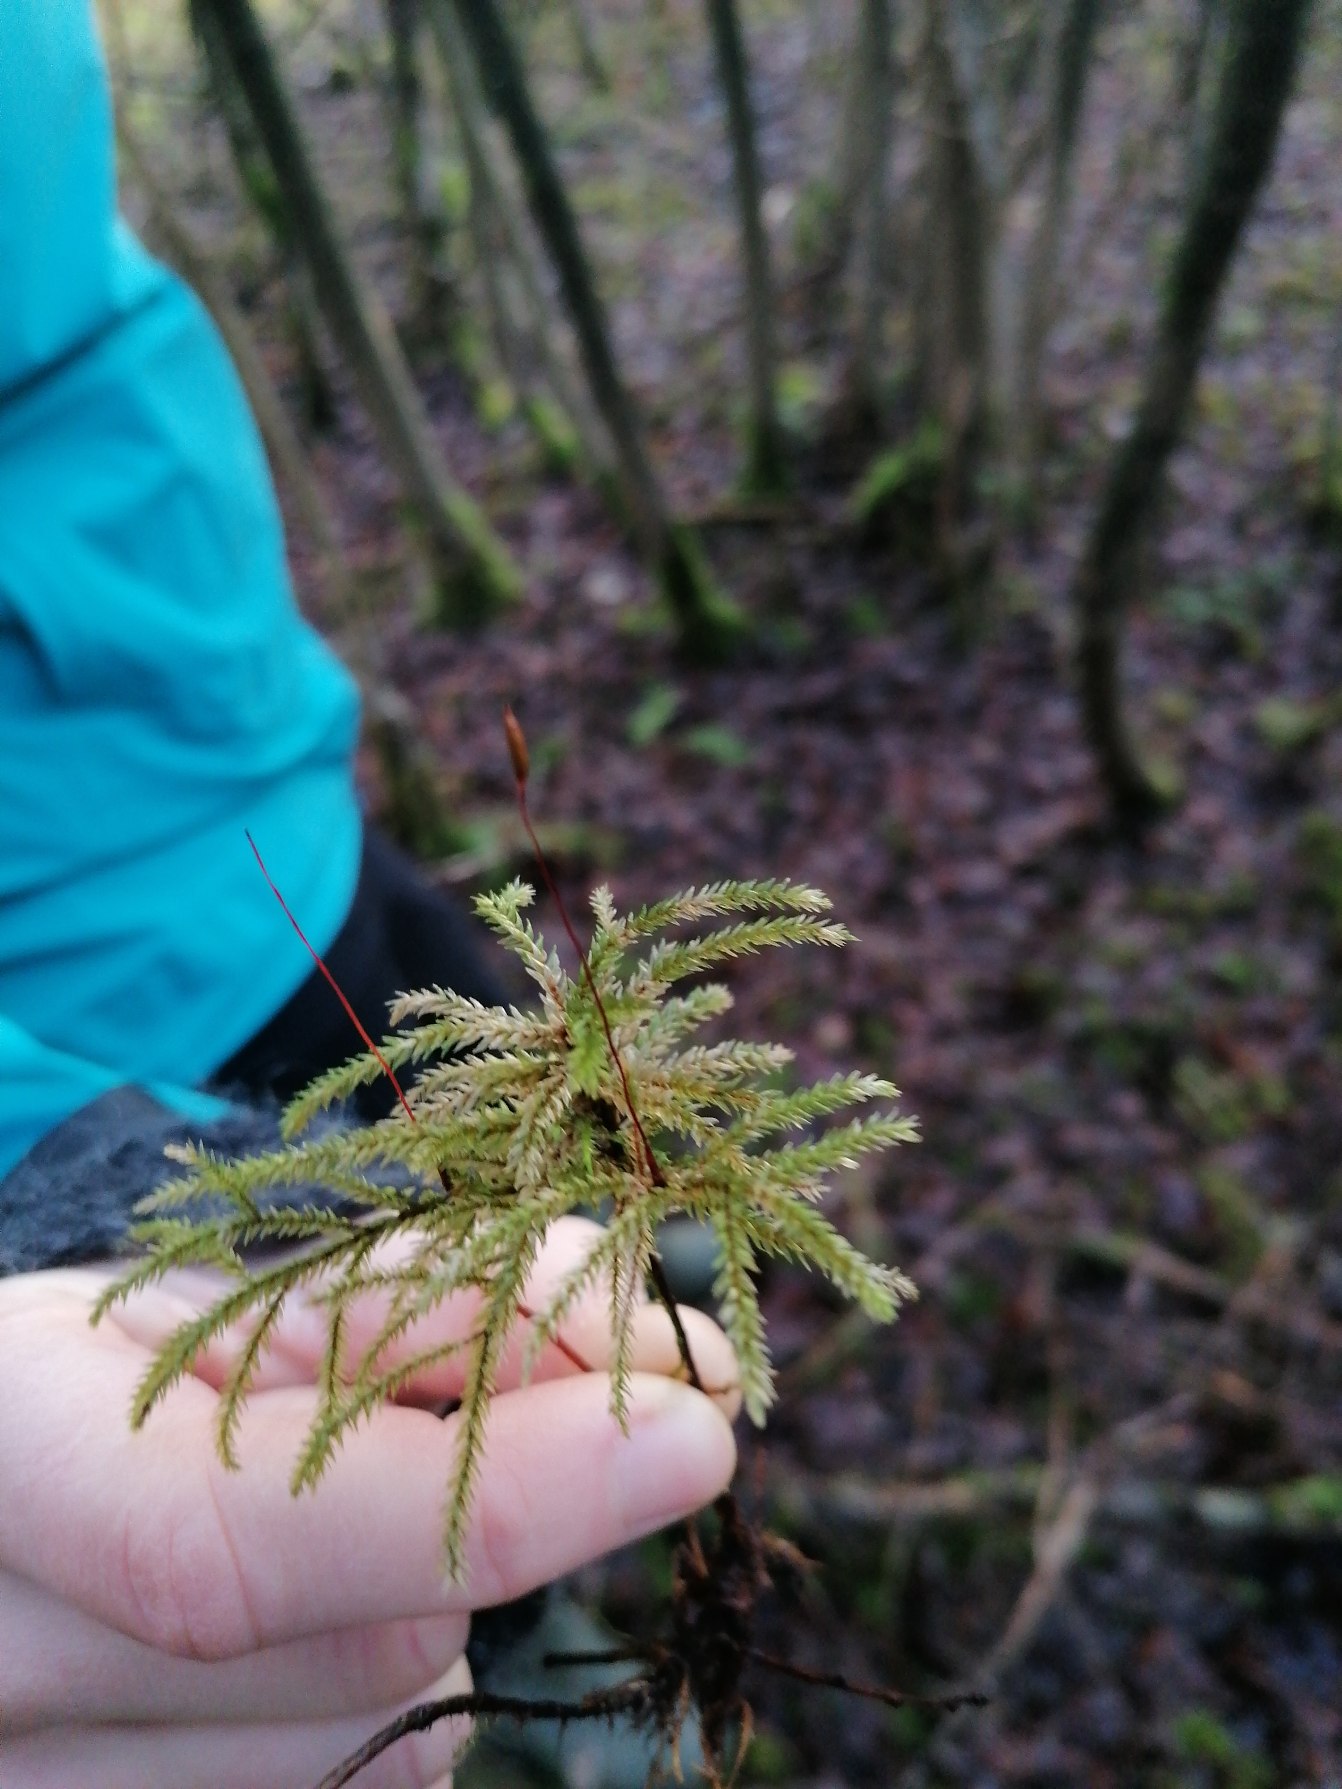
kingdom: Plantae
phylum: Bryophyta
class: Bryopsida
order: Hypnales
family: Climaciaceae
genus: Climacium
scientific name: Climacium dendroides
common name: Stor engkost
